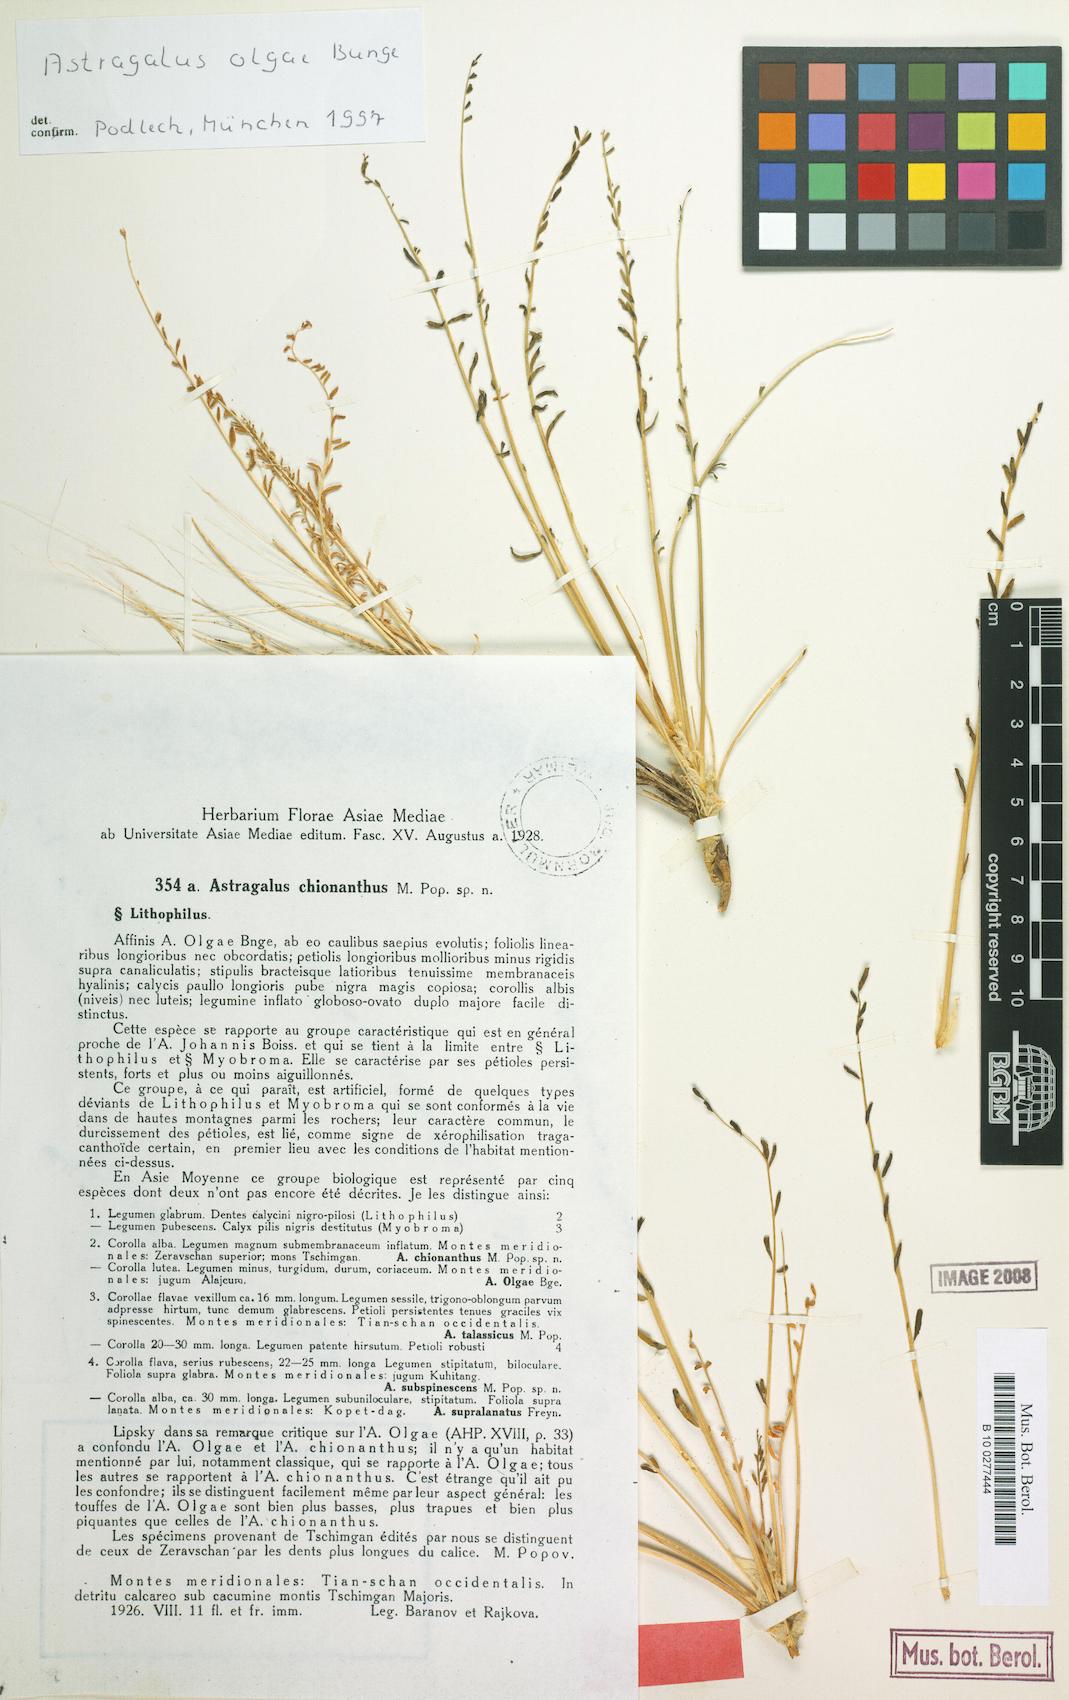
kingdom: Plantae
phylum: Tracheophyta
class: Magnoliopsida
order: Fabales
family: Fabaceae
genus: Astragalus
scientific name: Astragalus olgae
